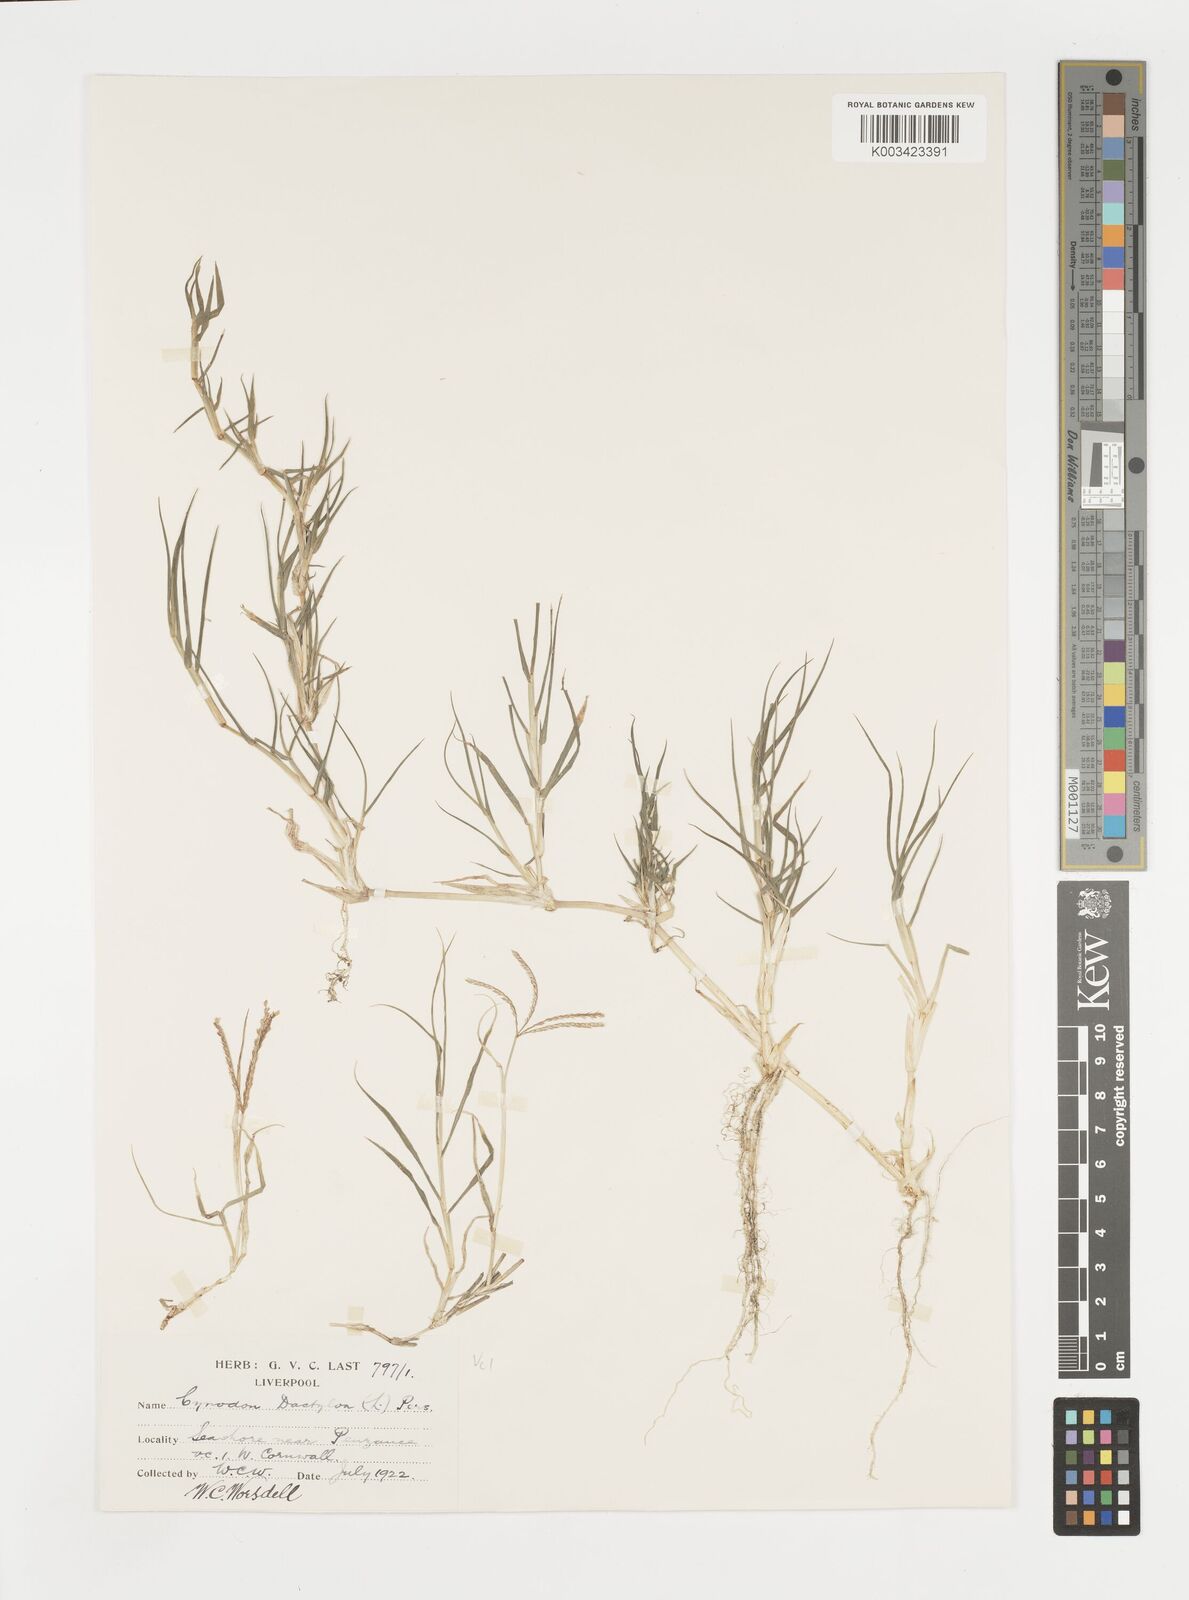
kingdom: Plantae
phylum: Tracheophyta
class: Liliopsida
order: Poales
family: Poaceae
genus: Cynodon
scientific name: Cynodon dactylon
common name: Bermuda grass
